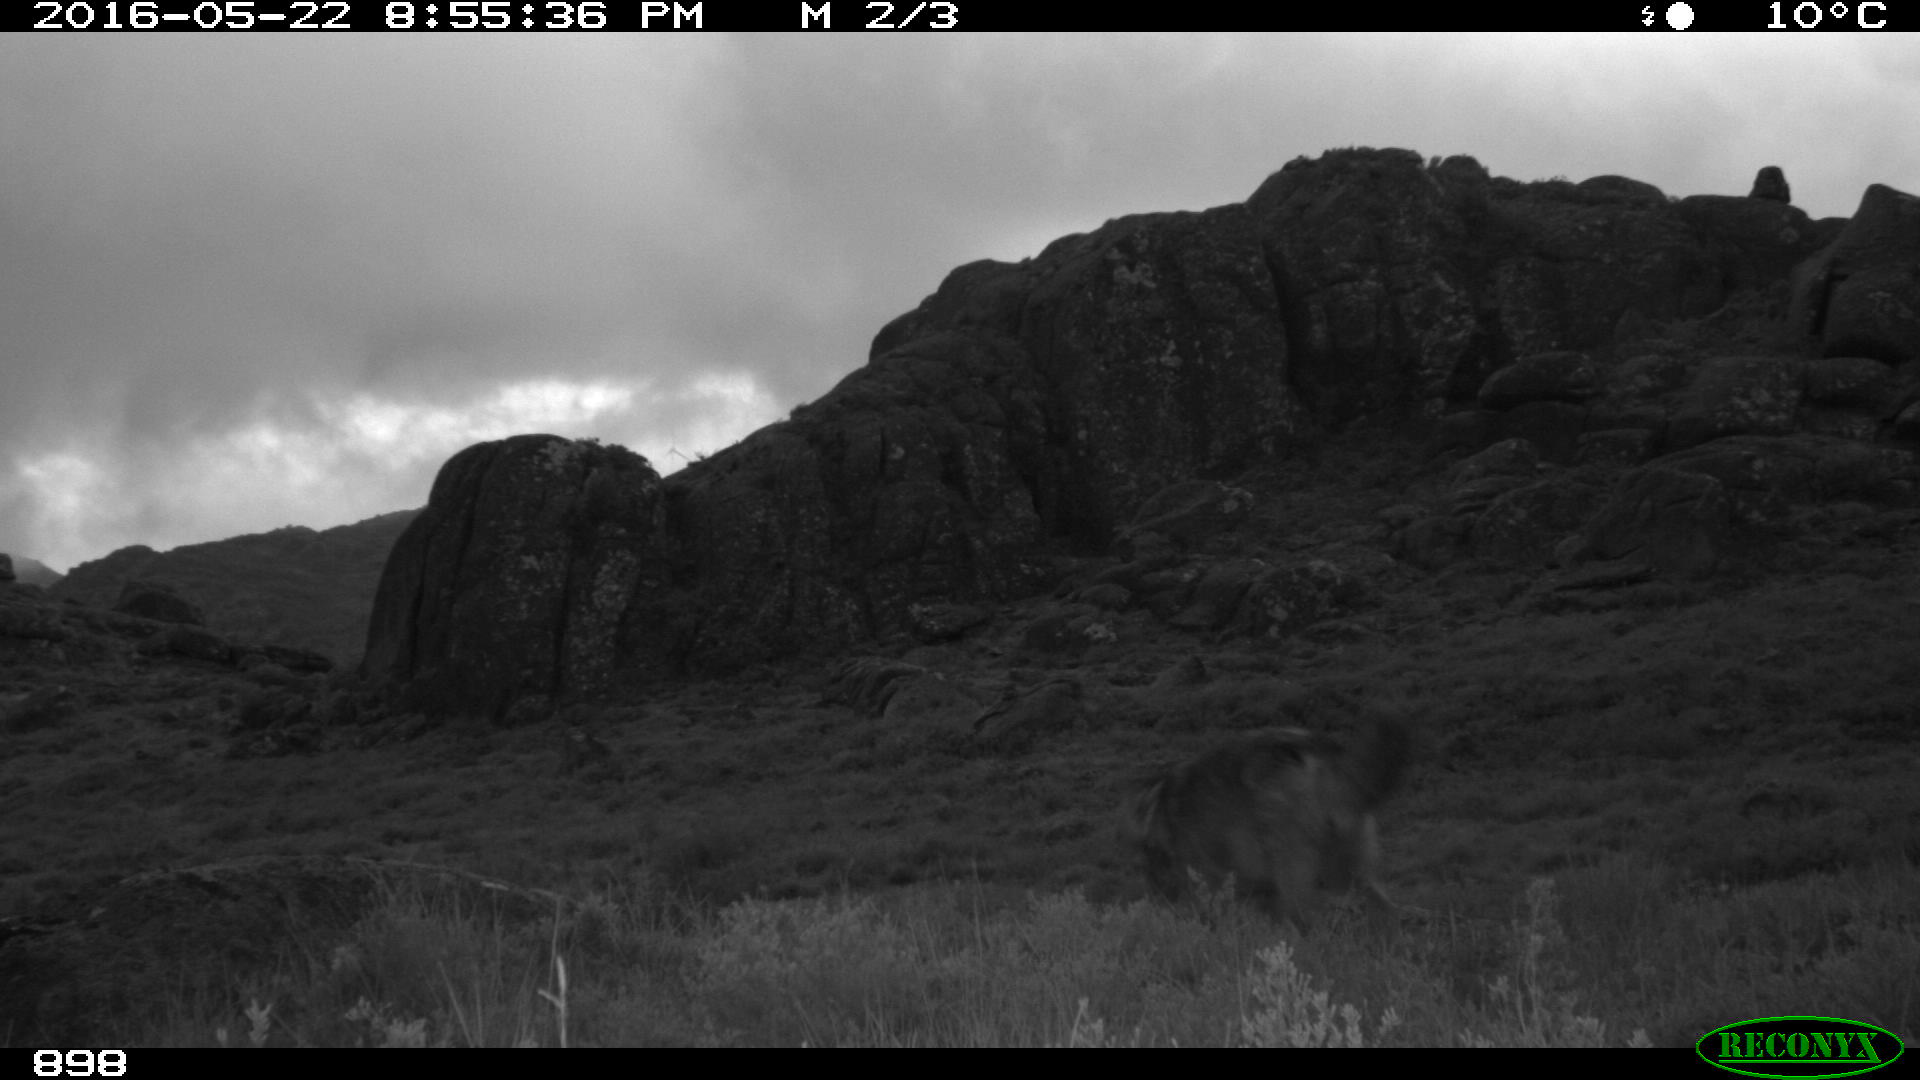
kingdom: Animalia
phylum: Chordata
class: Mammalia
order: Carnivora
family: Canidae
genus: Canis
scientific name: Canis lupus
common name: Gray wolf
